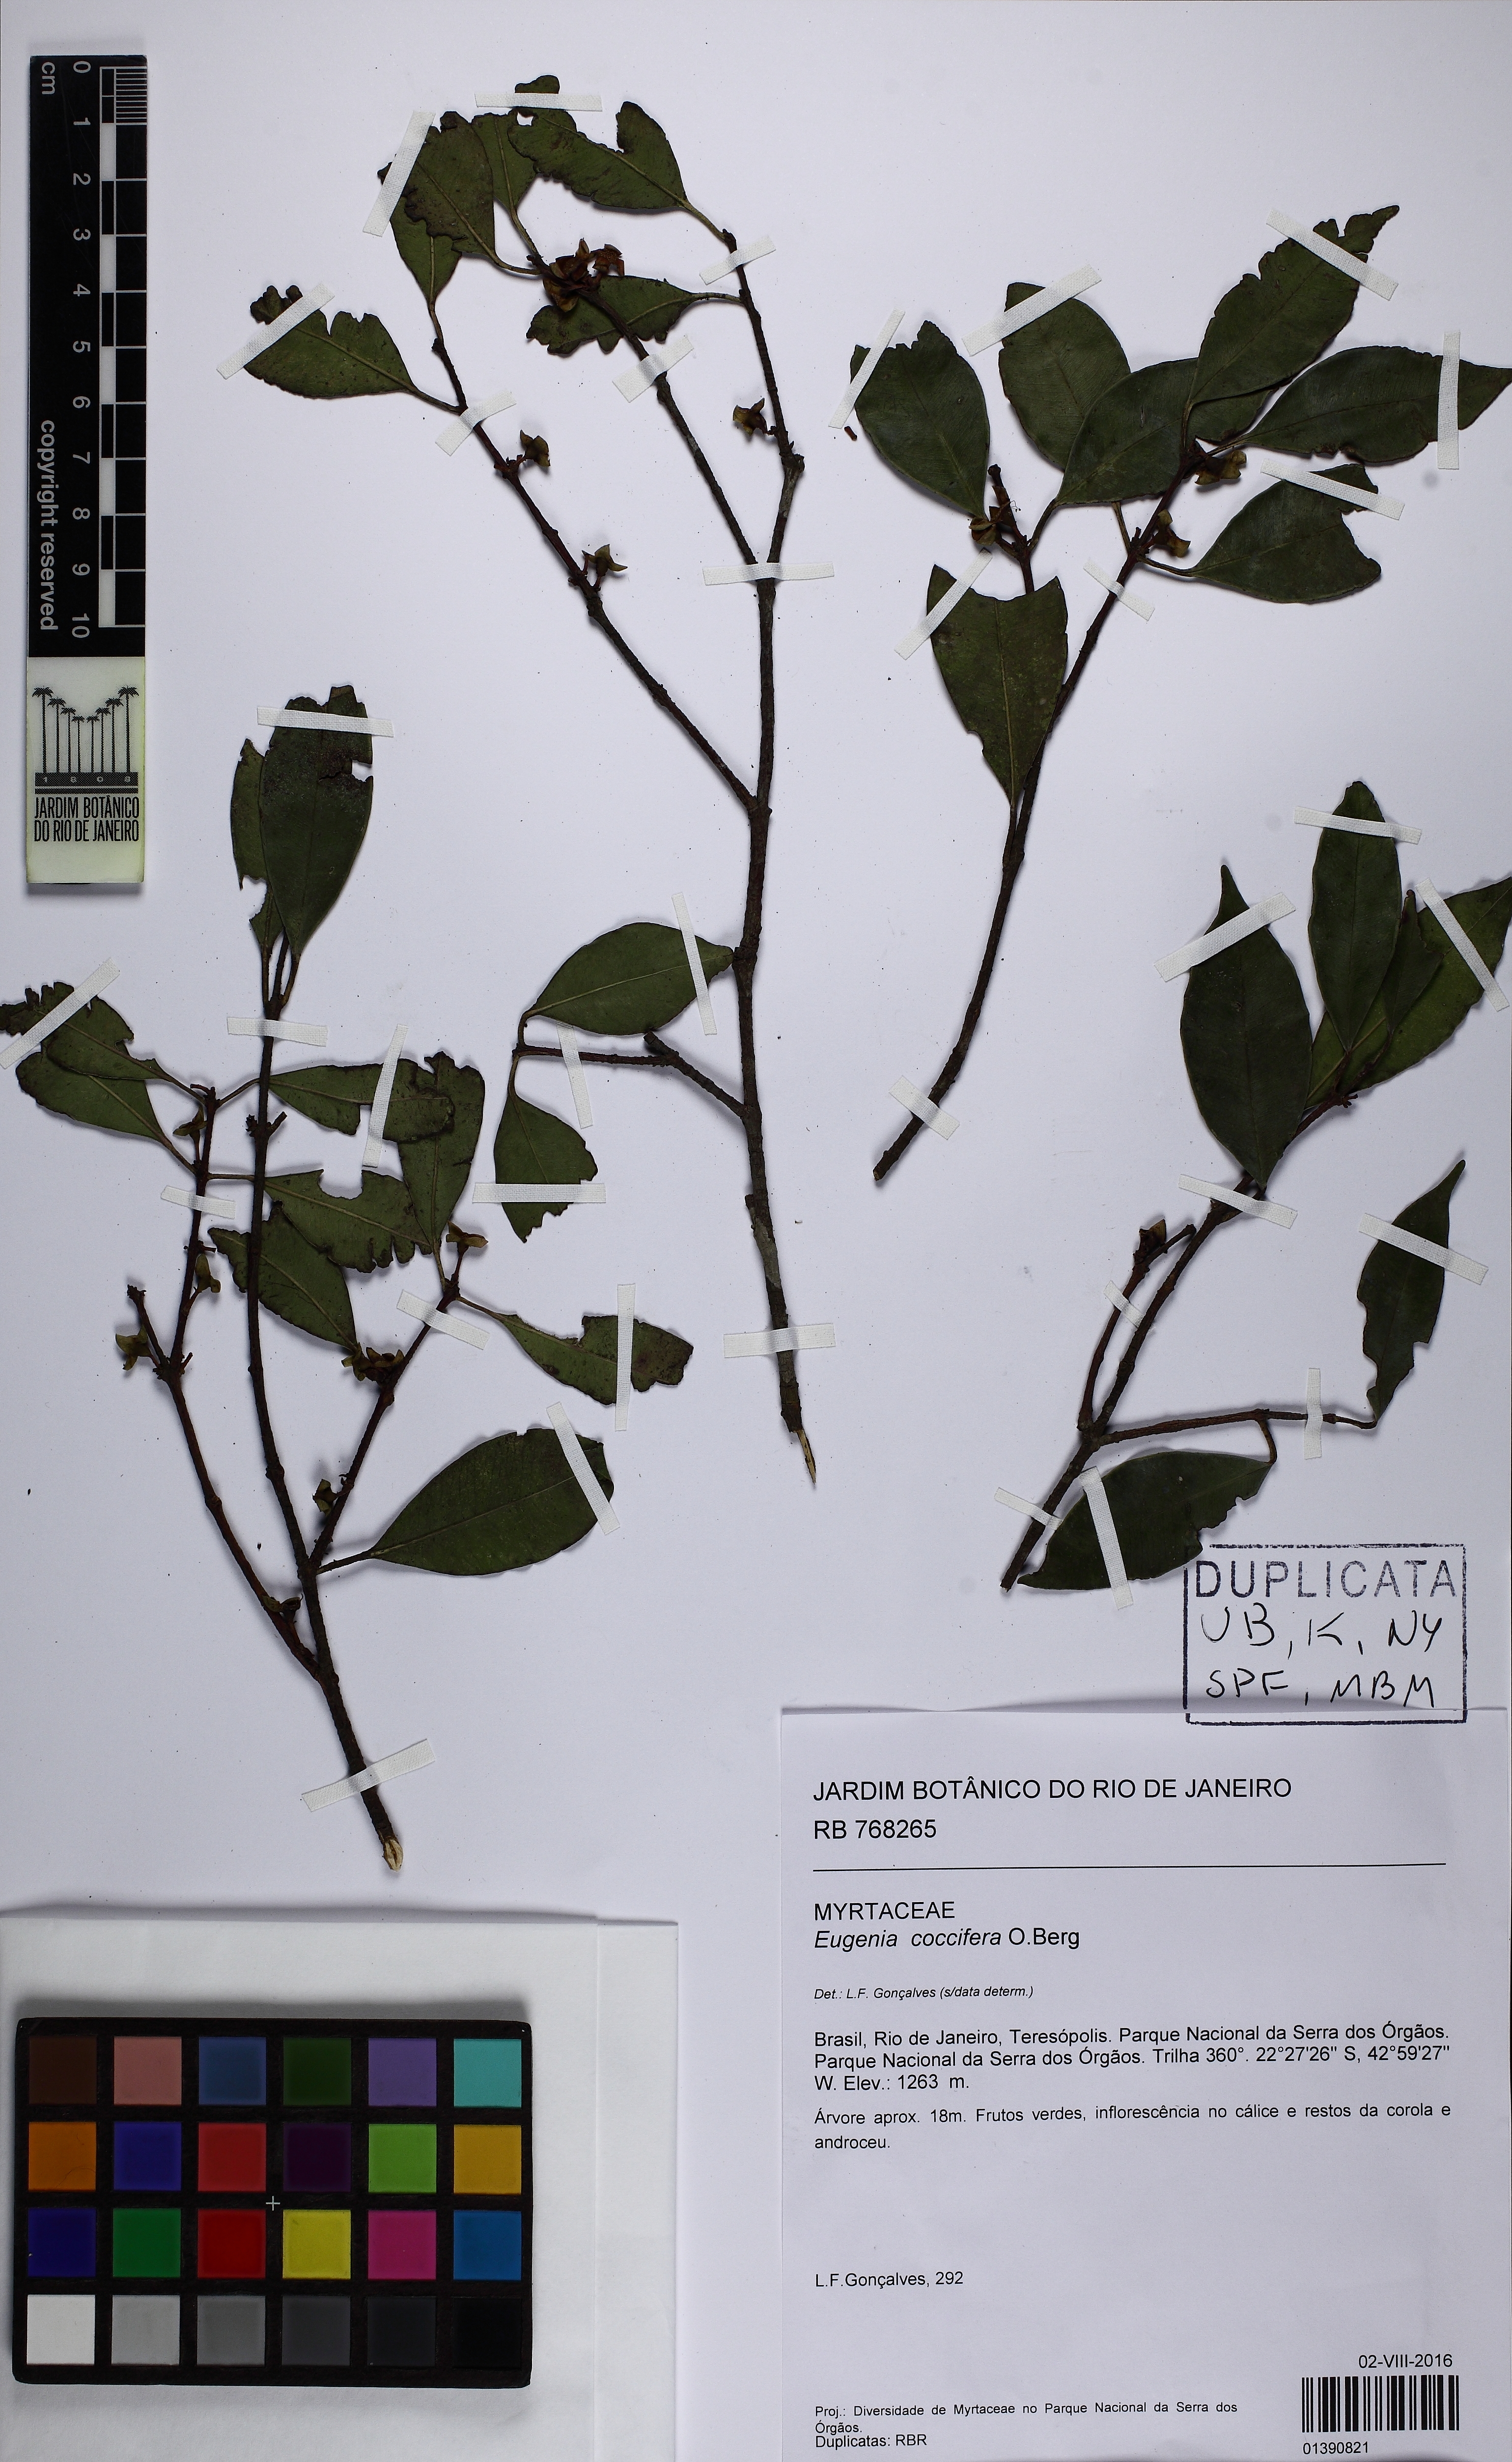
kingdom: Plantae
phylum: Tracheophyta
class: Magnoliopsida
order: Myrtales
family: Myrtaceae
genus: Eugenia
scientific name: Eugenia coccifera
